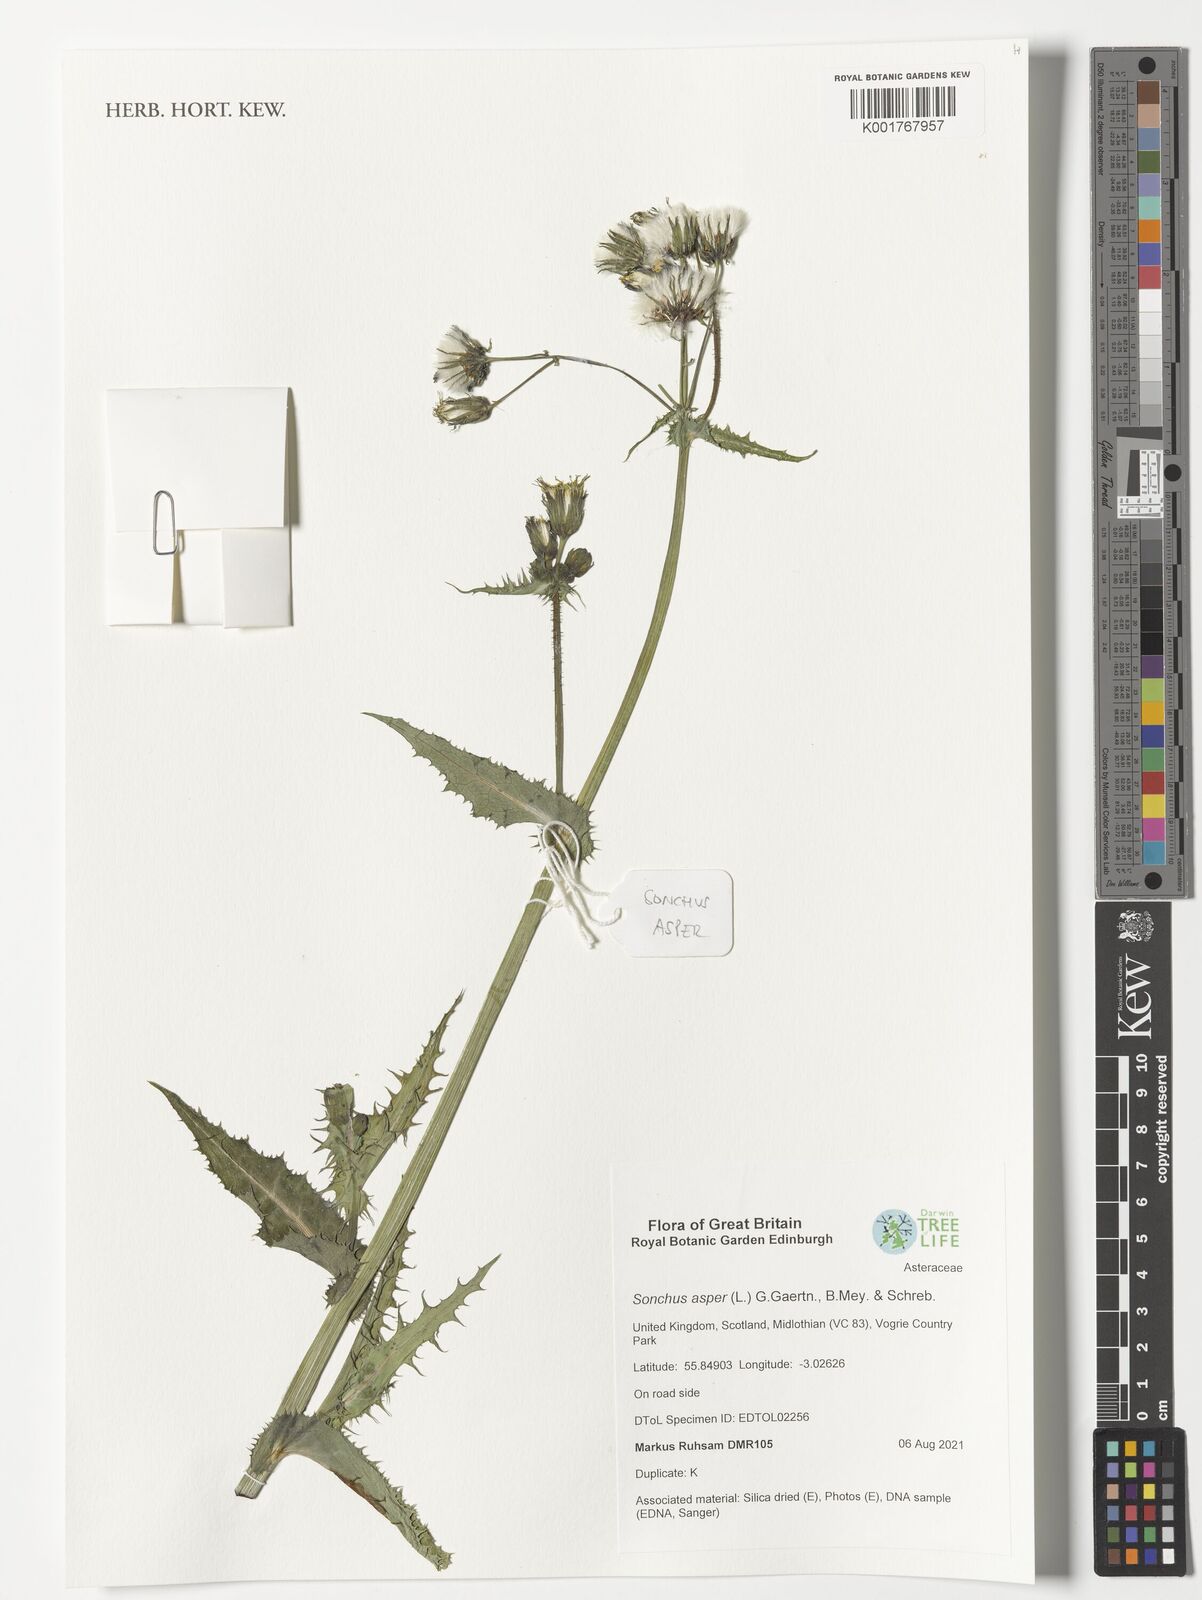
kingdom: Plantae
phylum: Tracheophyta
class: Magnoliopsida
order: Asterales
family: Asteraceae
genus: Sonchus
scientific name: Sonchus asper
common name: Prickly sow-thistle
